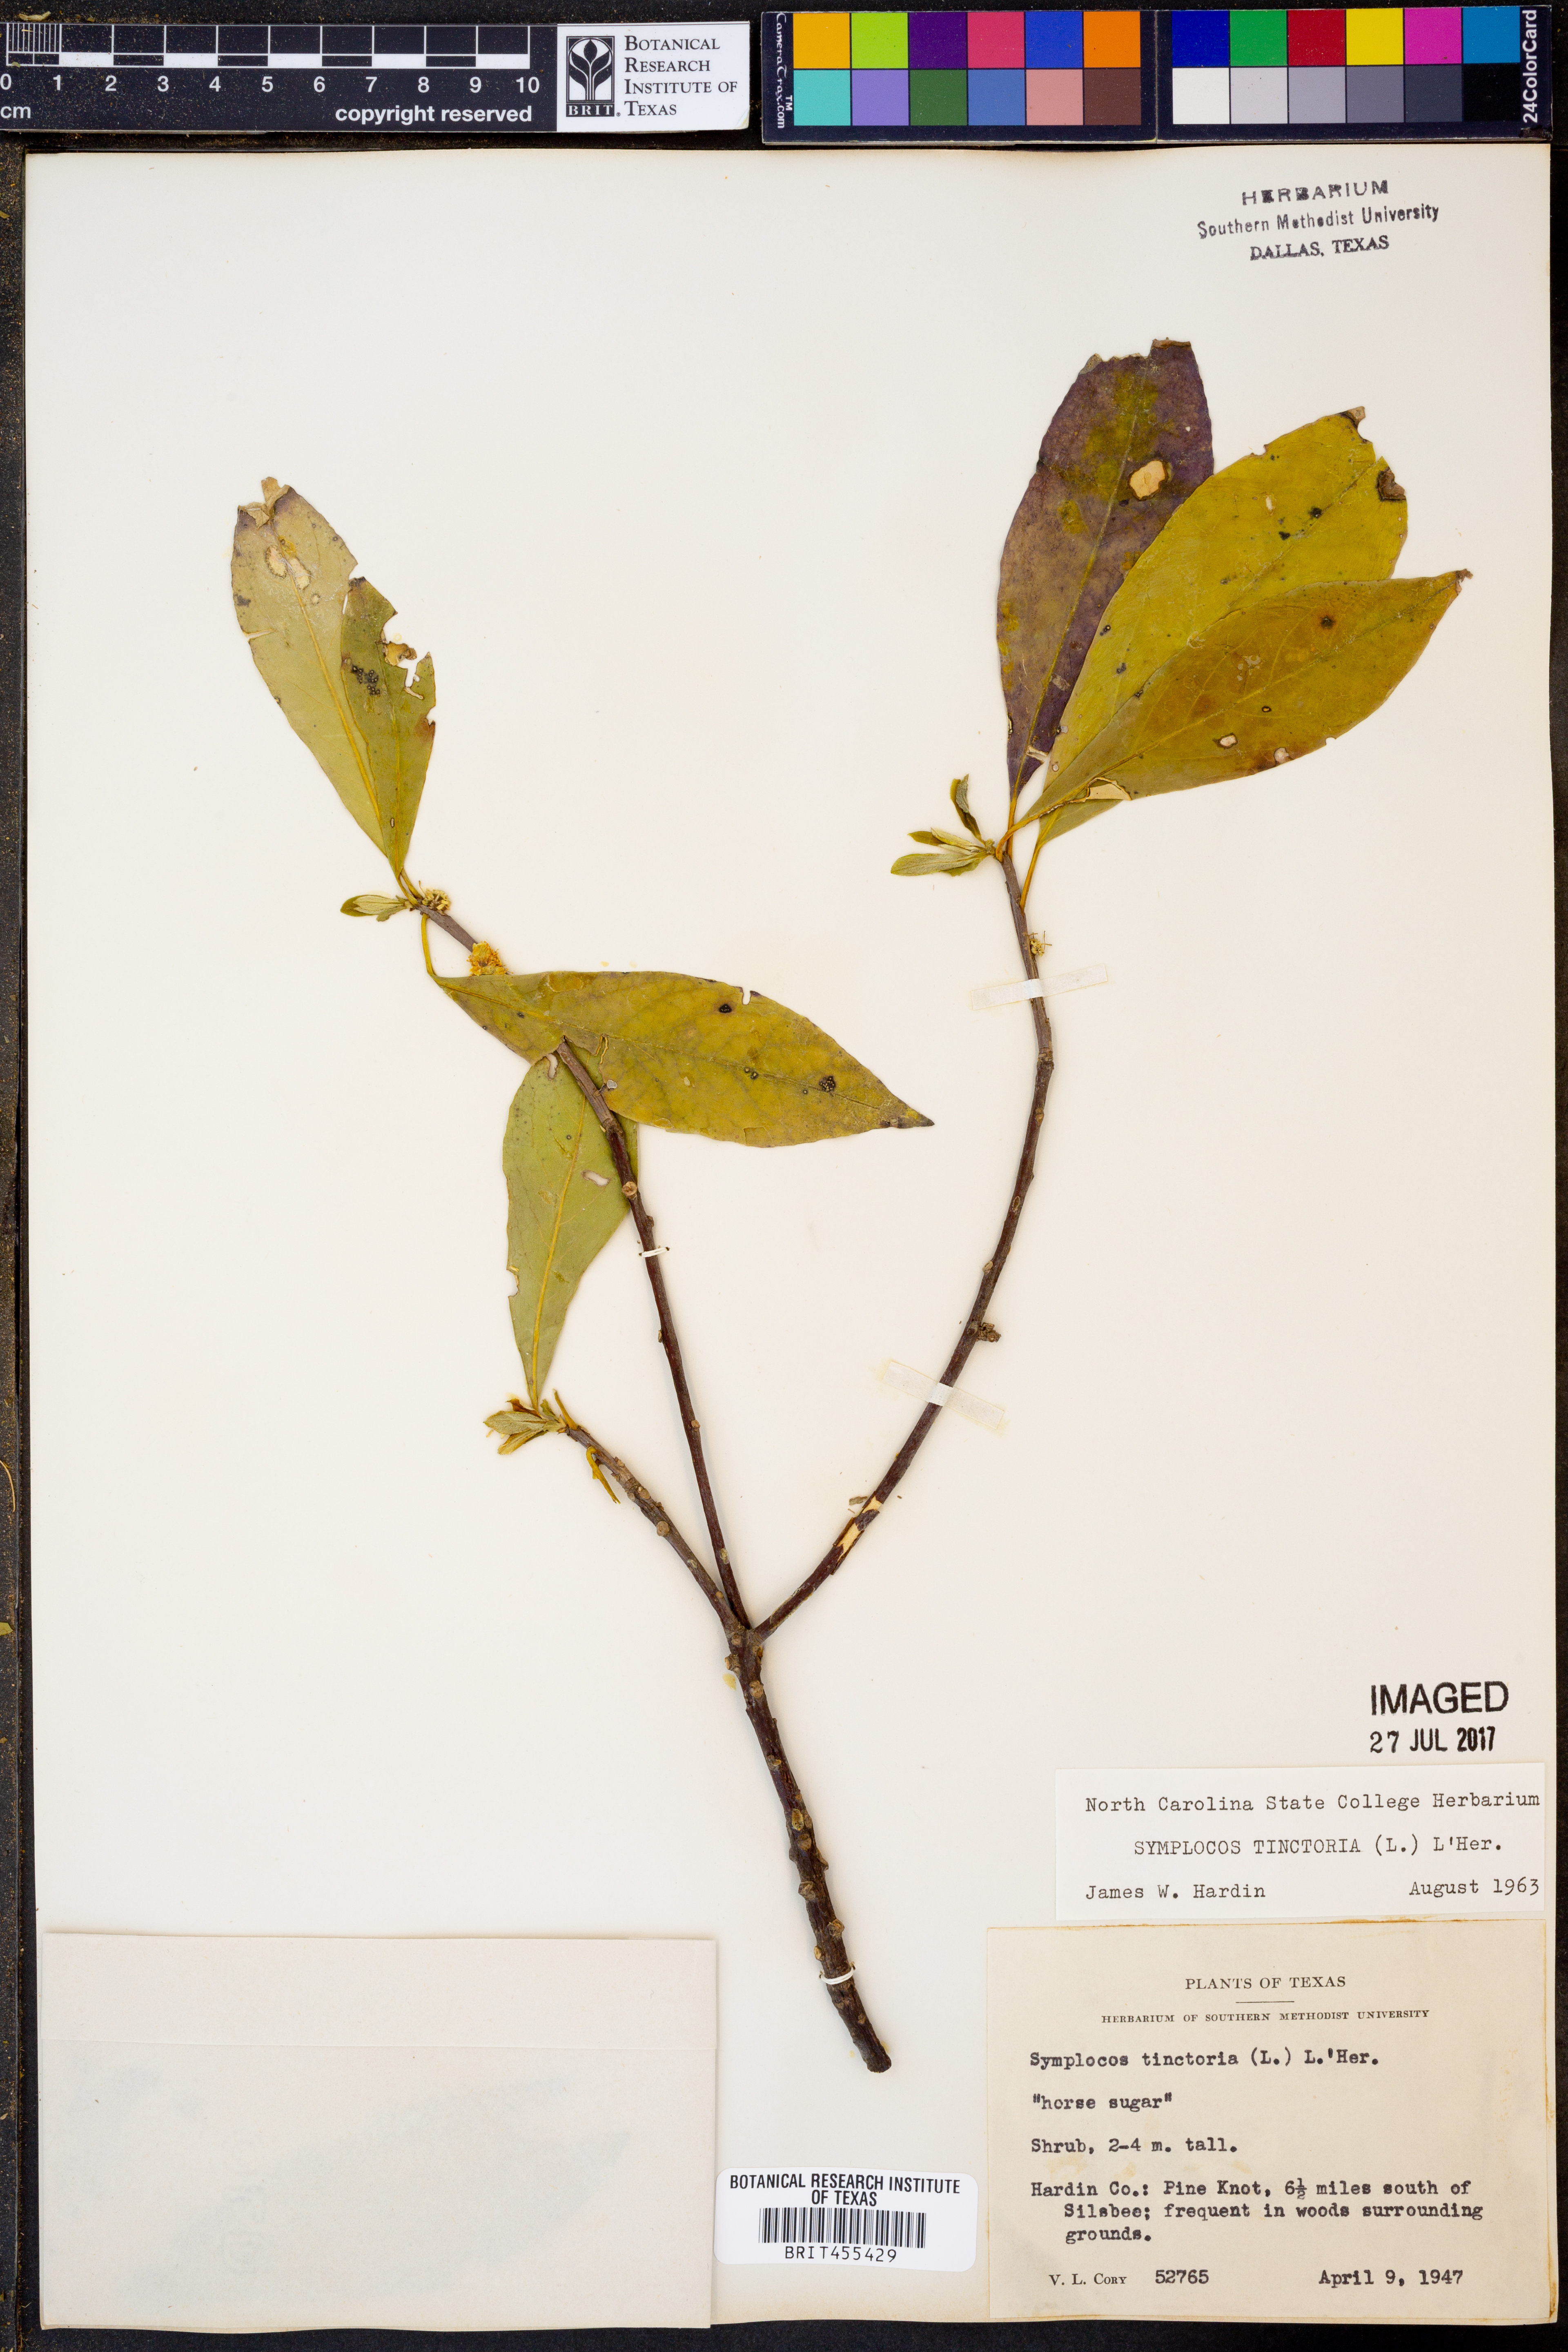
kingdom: Plantae
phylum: Tracheophyta
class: Magnoliopsida
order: Ericales
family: Symplocaceae
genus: Symplocos
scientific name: Symplocos tinctoria
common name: Horse-sugar
